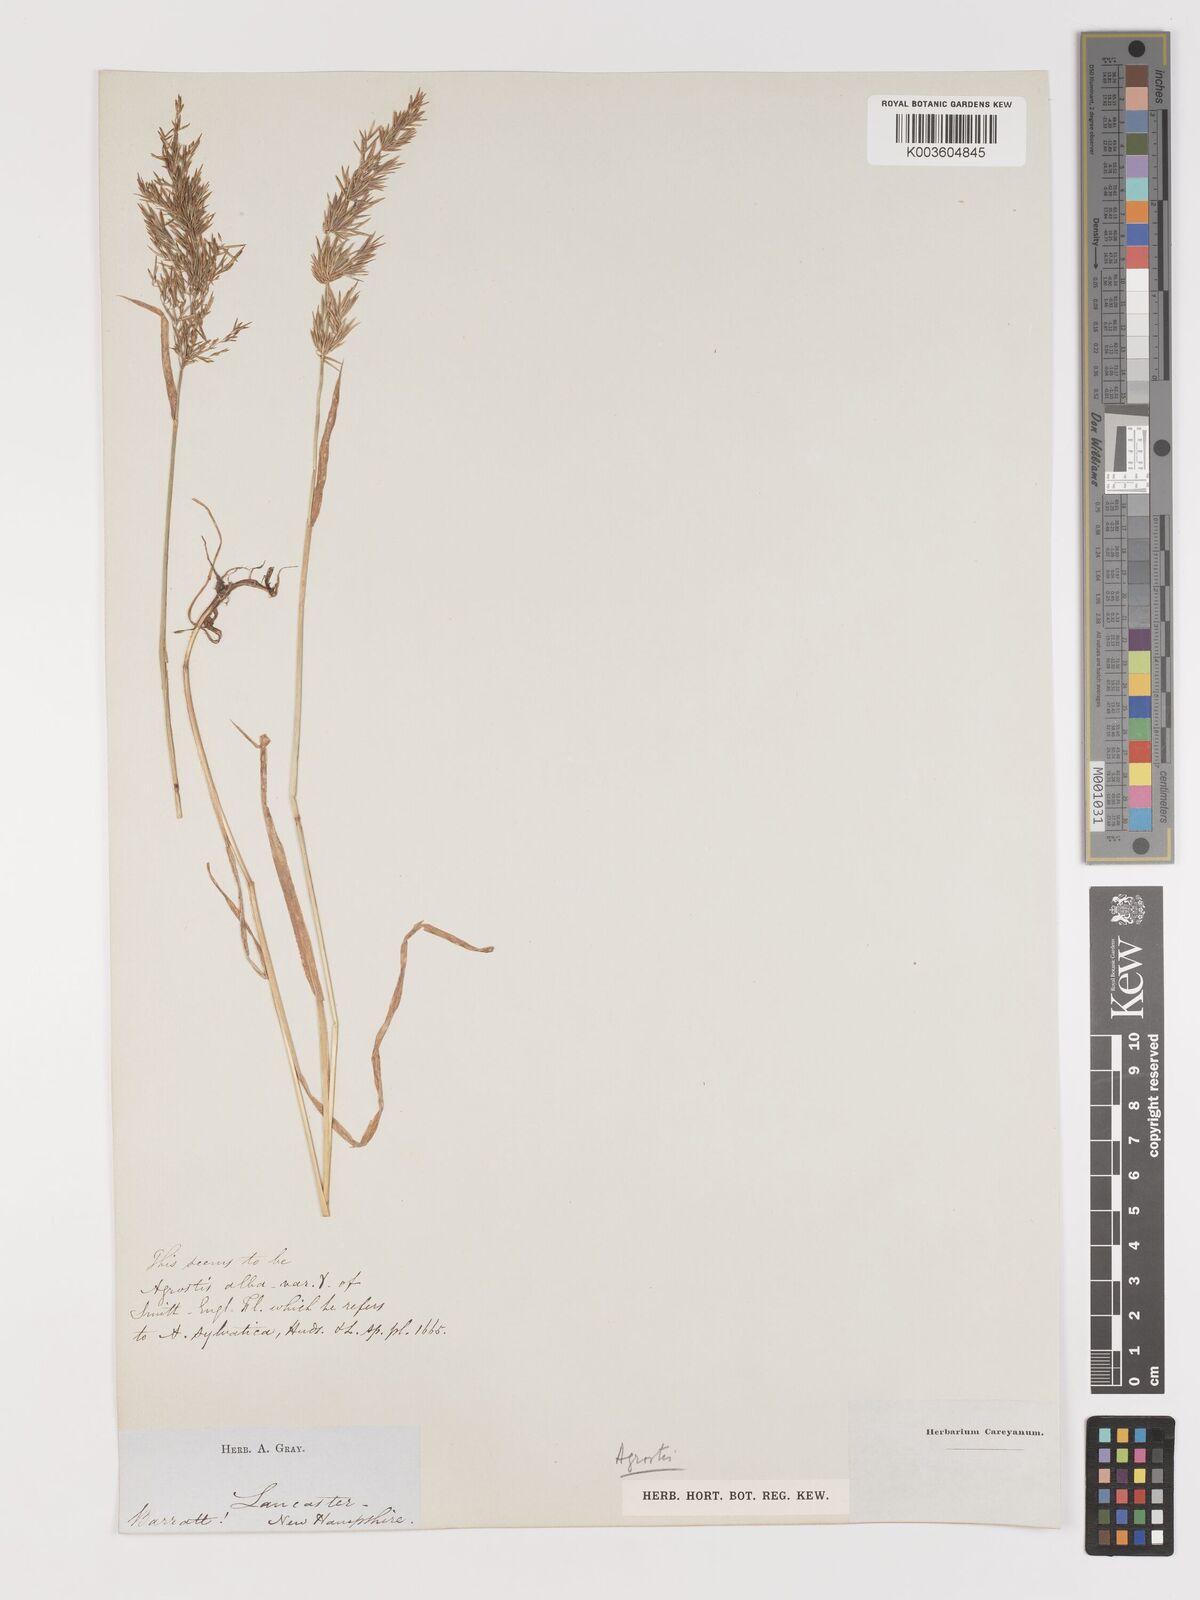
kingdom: Plantae
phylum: Tracheophyta
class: Liliopsida
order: Poales
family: Poaceae
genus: Agrostis
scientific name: Agrostis
